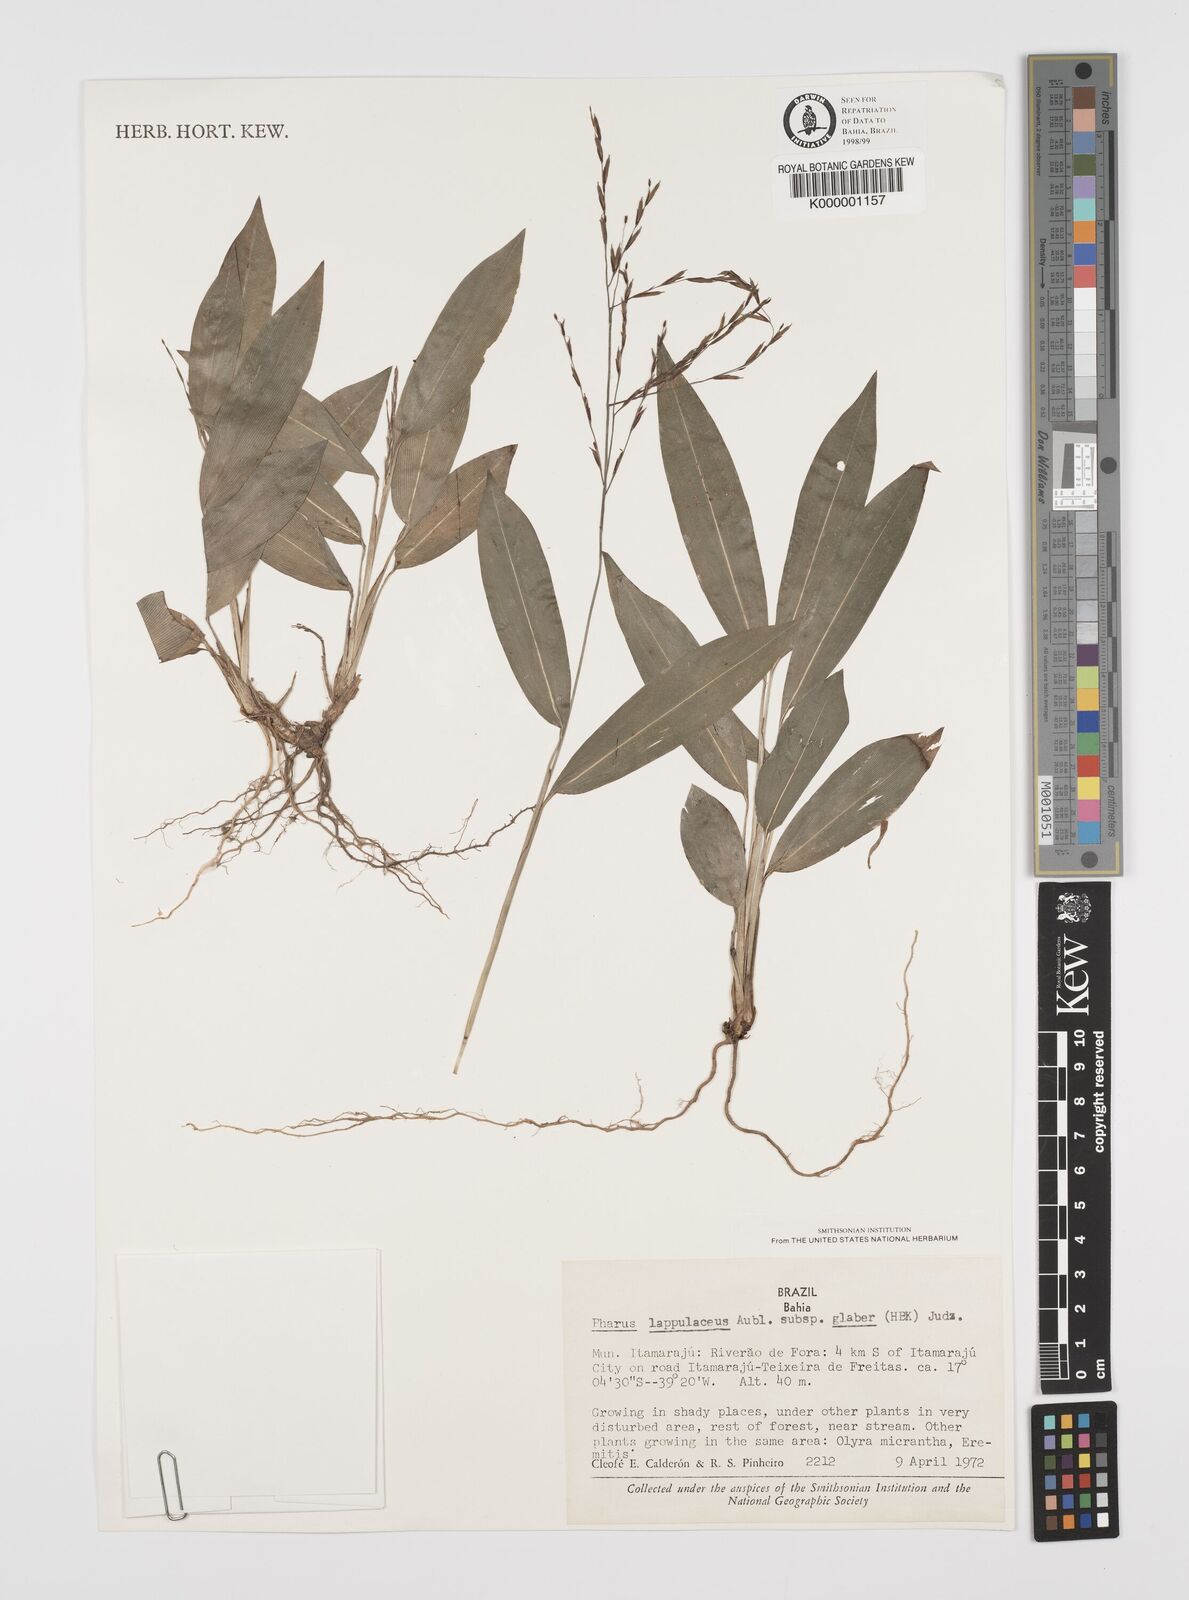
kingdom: Plantae
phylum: Tracheophyta
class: Liliopsida
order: Poales
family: Poaceae
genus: Pharus
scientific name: Pharus lappulaceus
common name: Creeping leafstalk grass
